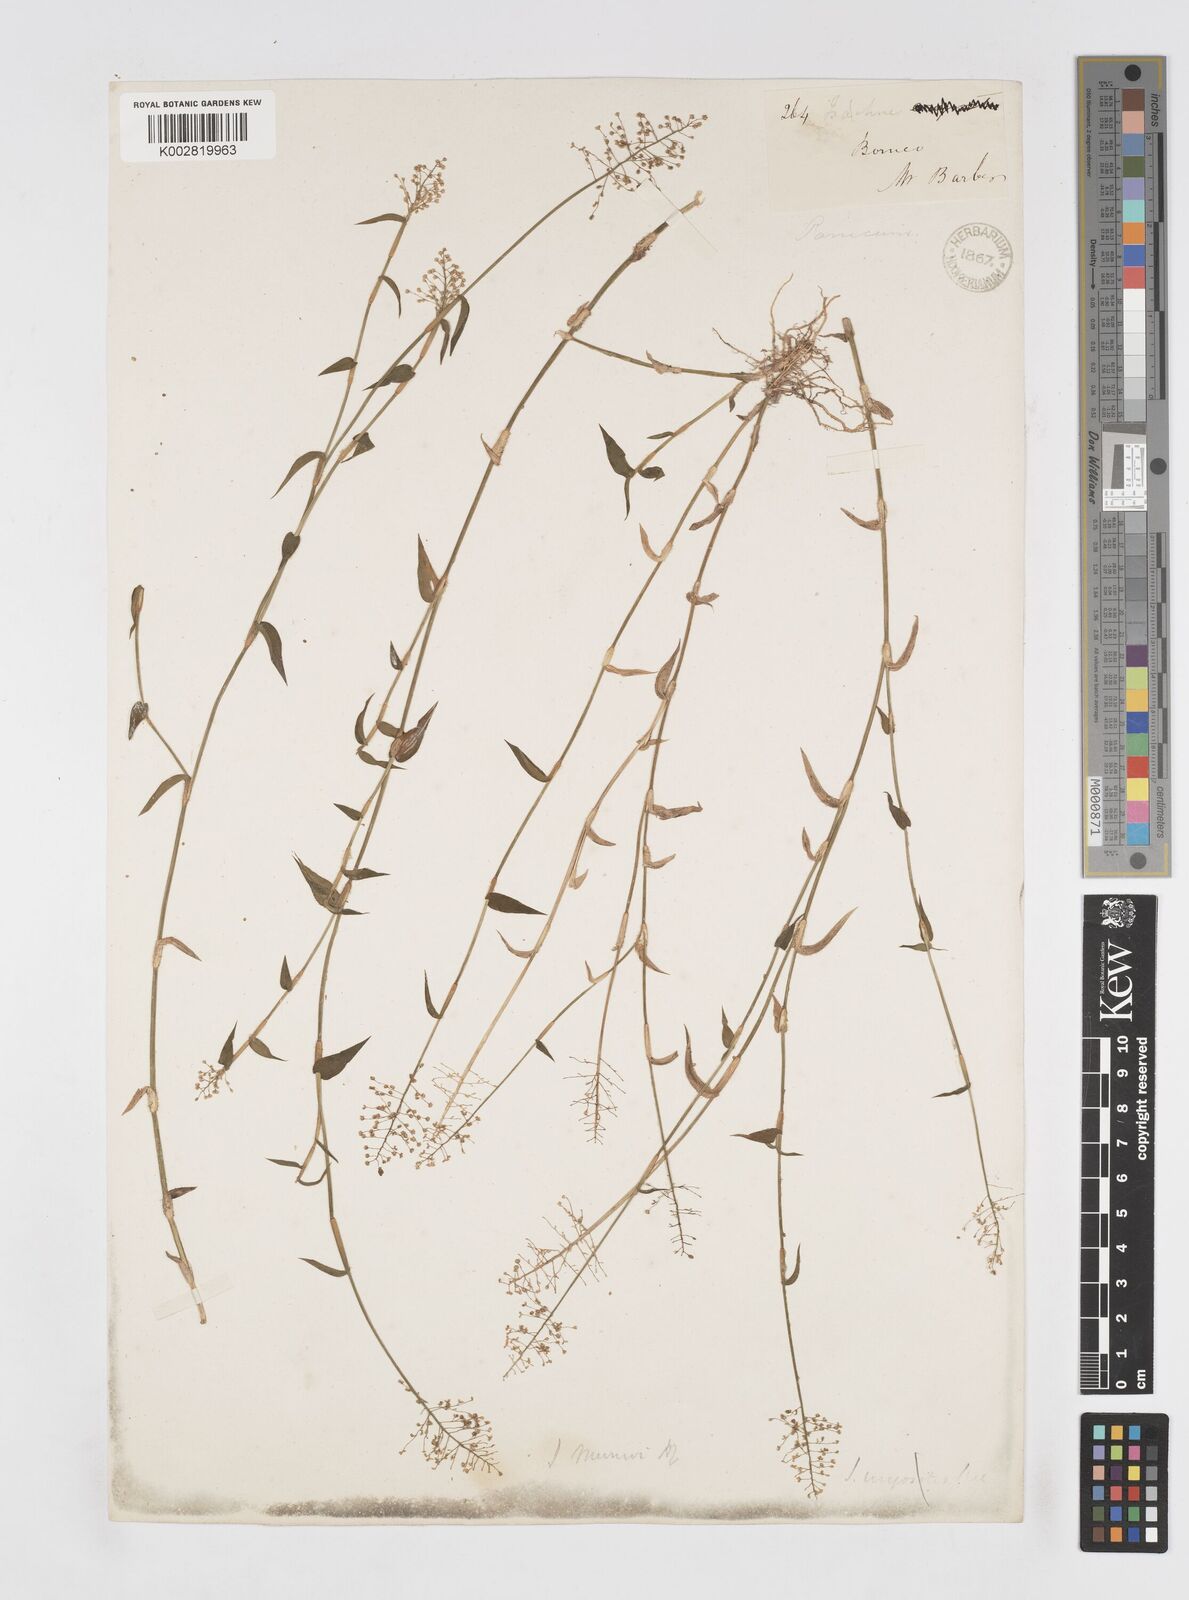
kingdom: Plantae
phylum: Tracheophyta
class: Liliopsida
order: Poales
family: Poaceae
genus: Isachne
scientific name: Isachne confusa
